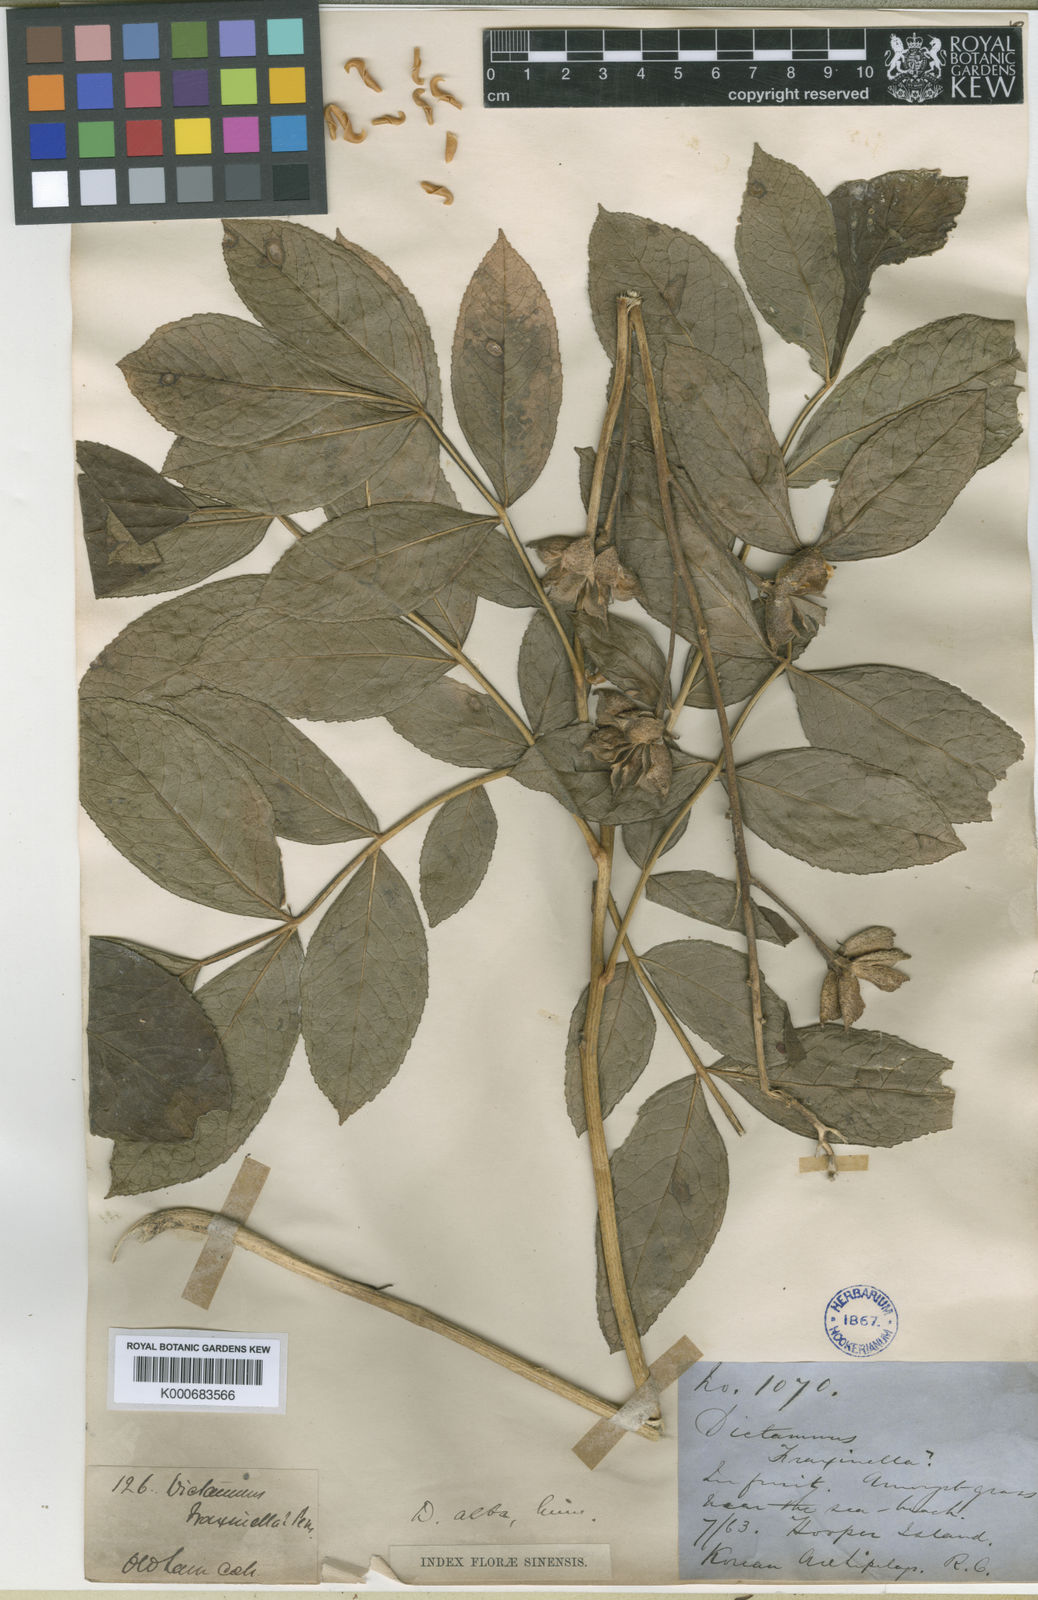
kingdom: Plantae
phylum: Tracheophyta
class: Magnoliopsida
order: Sapindales
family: Rutaceae
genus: Dictamnus
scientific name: Dictamnus albus
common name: Gasplant
